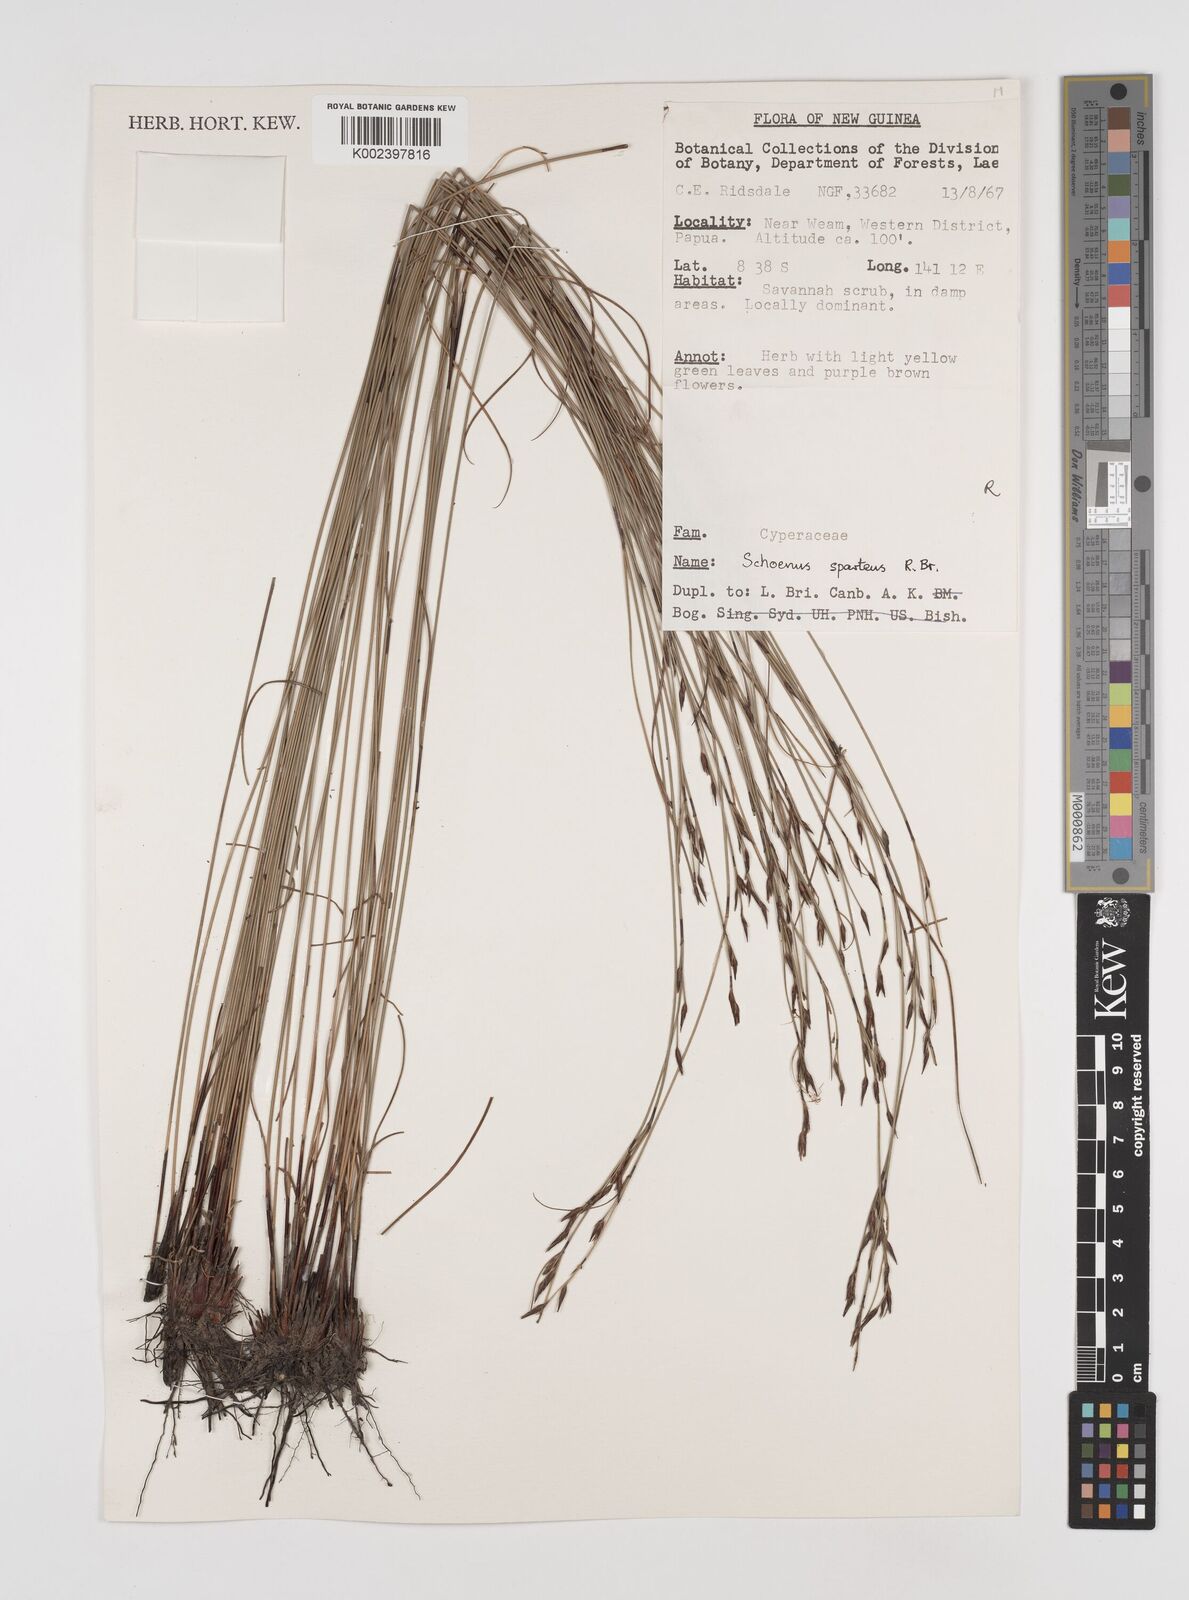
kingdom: Plantae
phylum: Tracheophyta
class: Liliopsida
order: Poales
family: Cyperaceae
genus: Schoenus
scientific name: Schoenus sparteus
